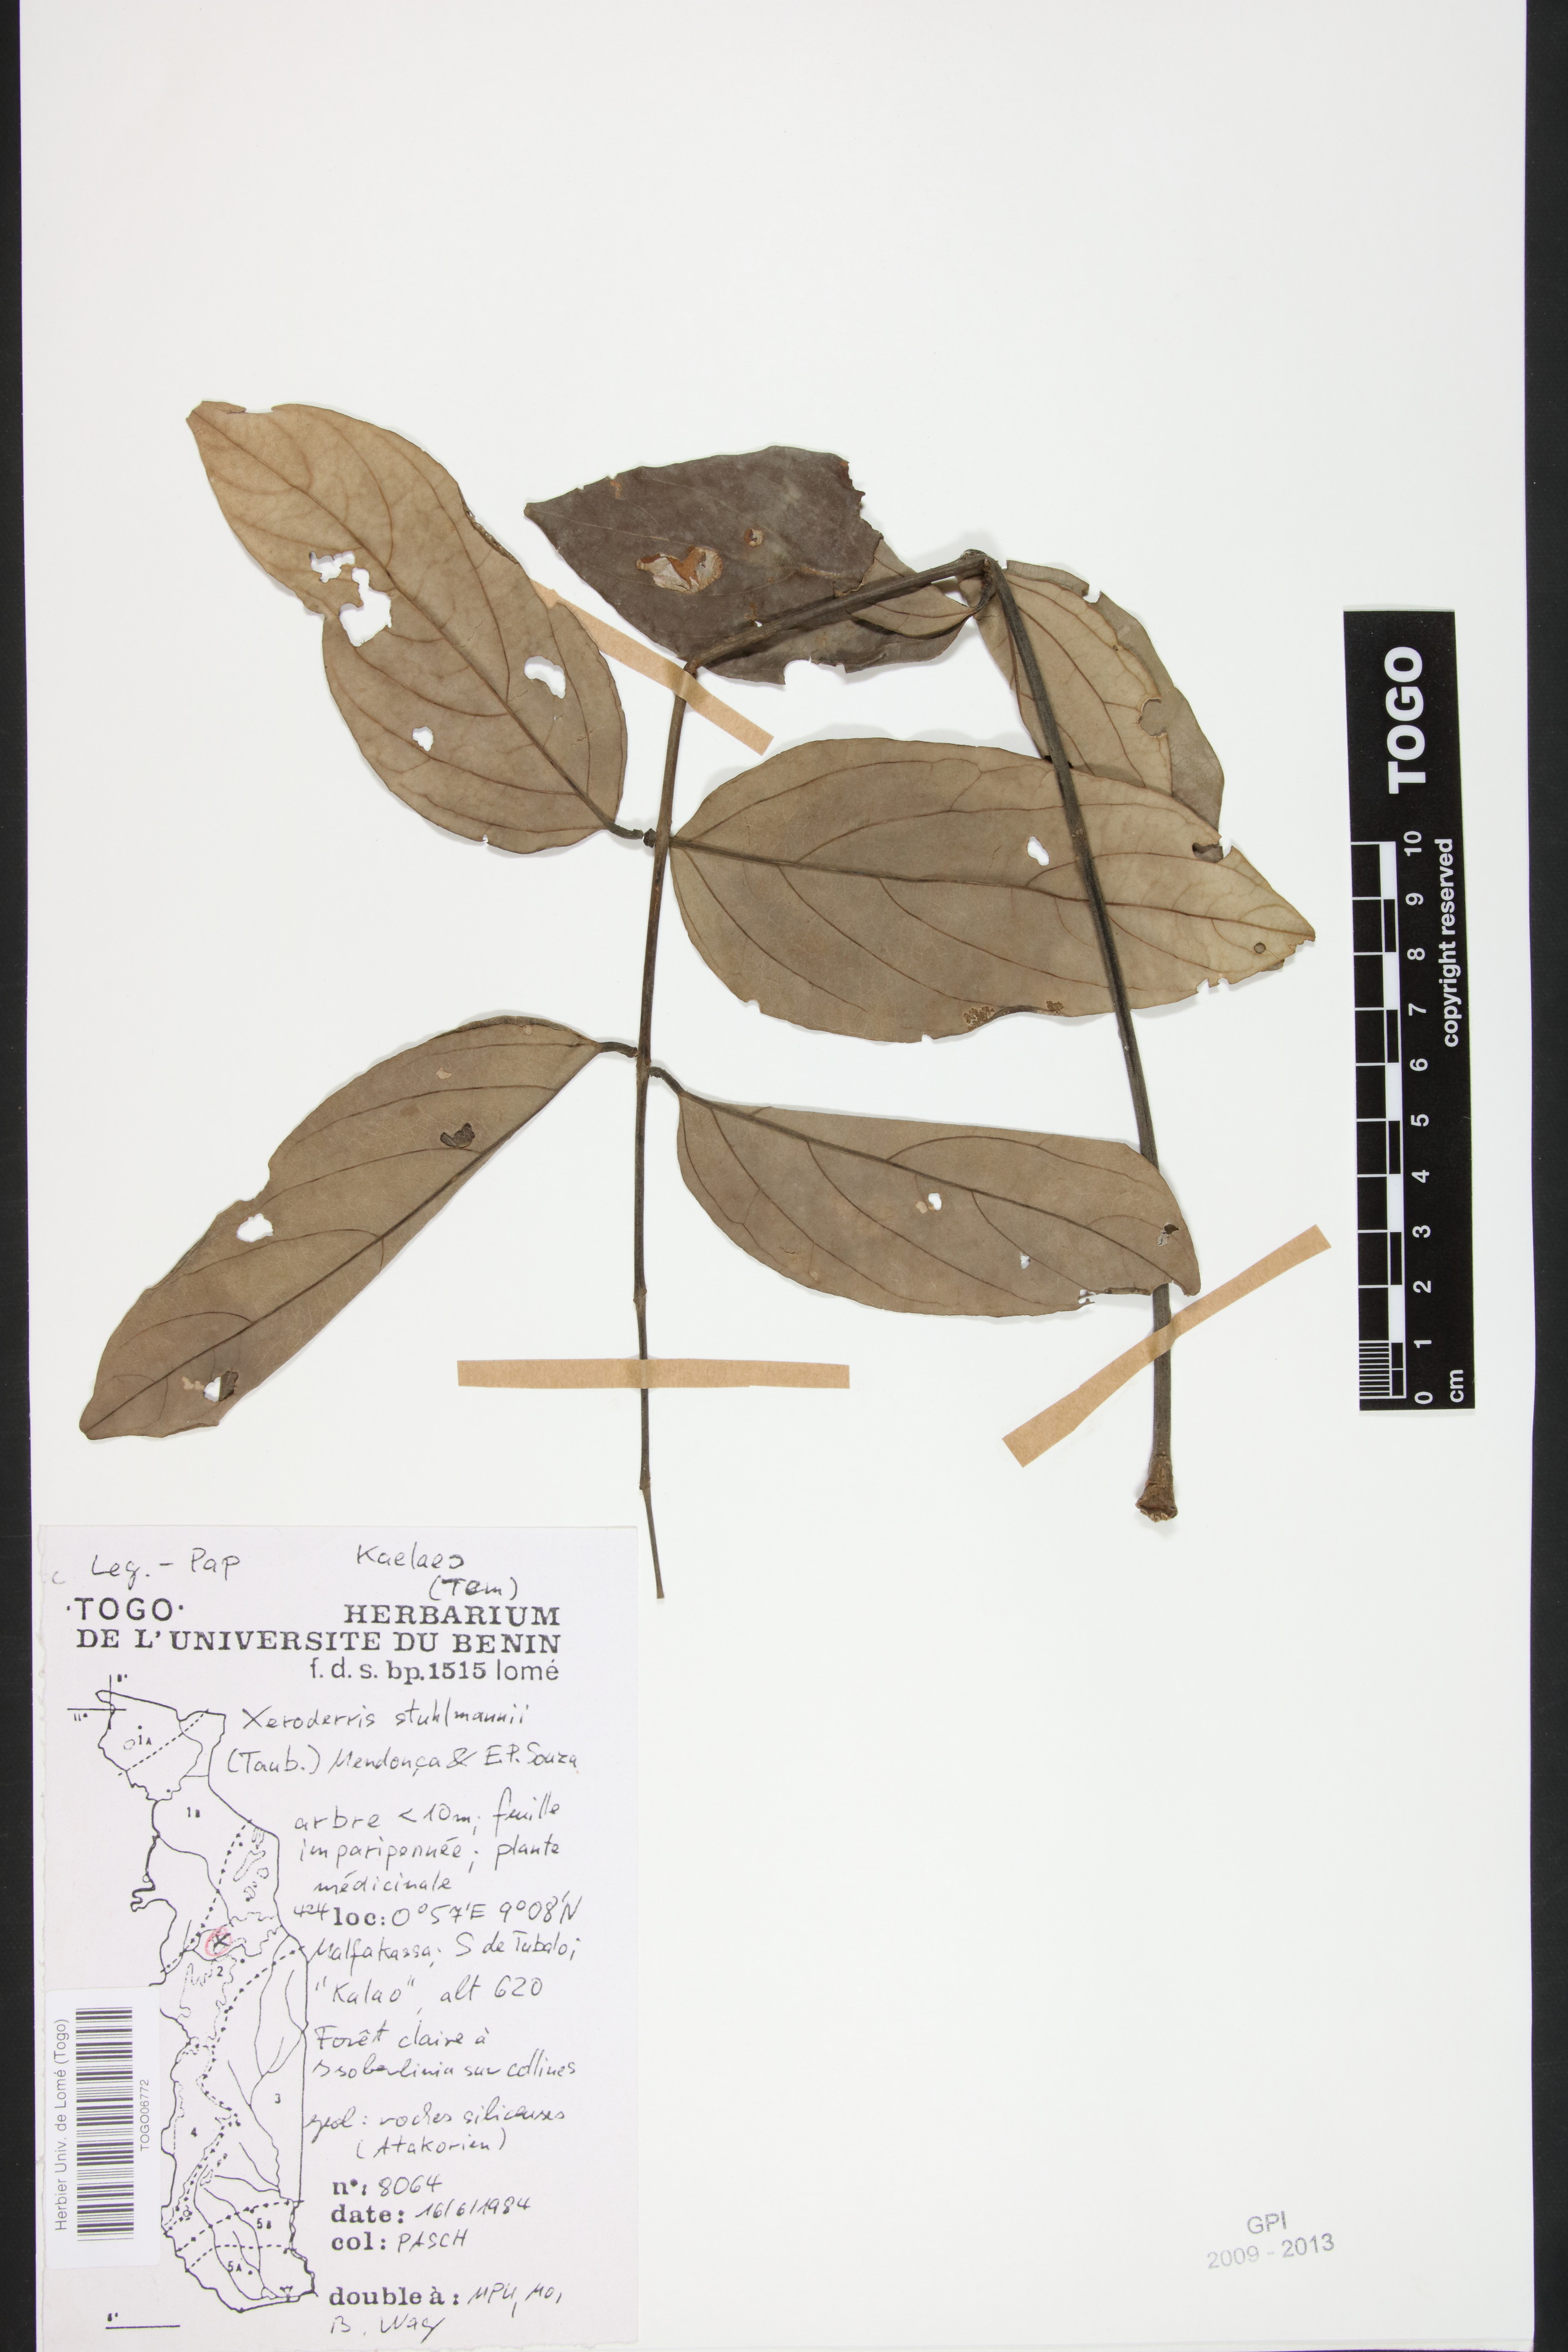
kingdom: Plantae
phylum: Tracheophyta
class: Magnoliopsida
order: Fabales
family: Fabaceae
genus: Aganope
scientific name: Aganope stuhlmannii
